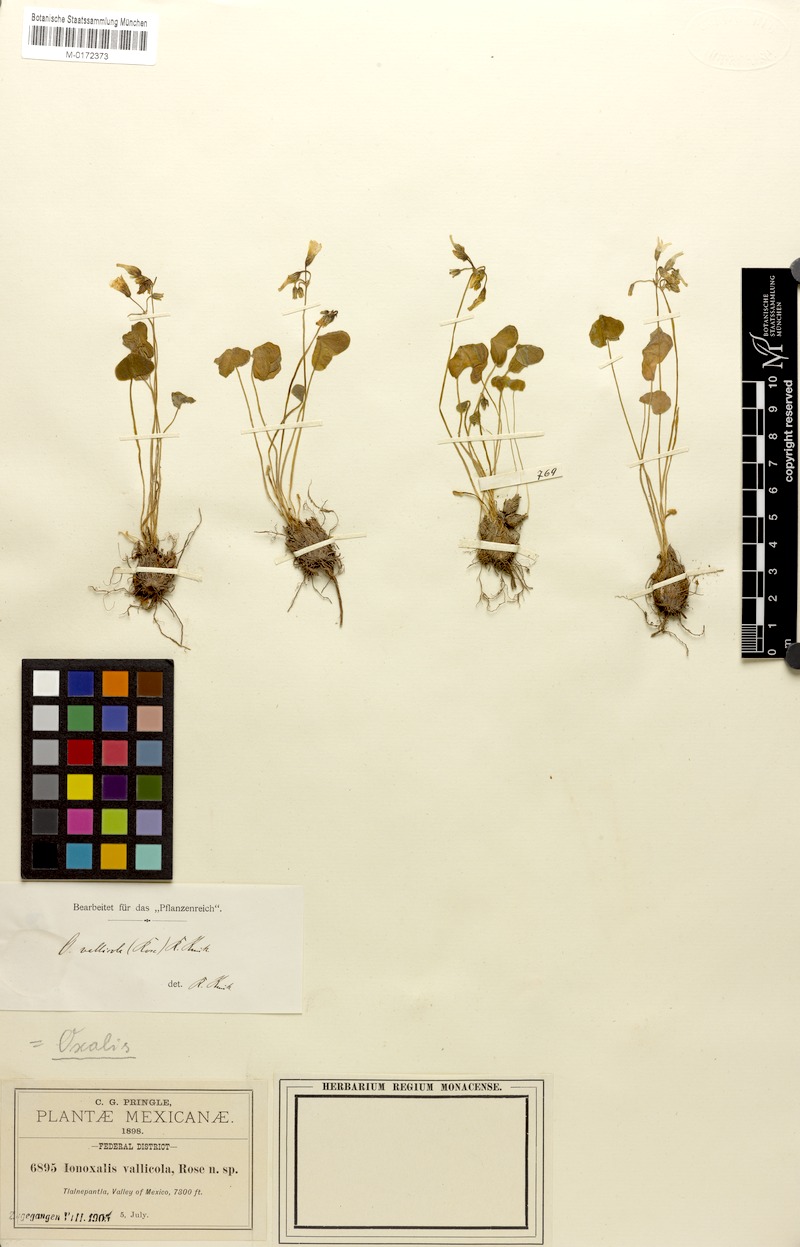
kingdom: Plantae
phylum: Tracheophyta
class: Magnoliopsida
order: Oxalidales
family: Oxalidaceae
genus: Oxalis
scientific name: Oxalis latifolia
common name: Garden pink-sorrel
